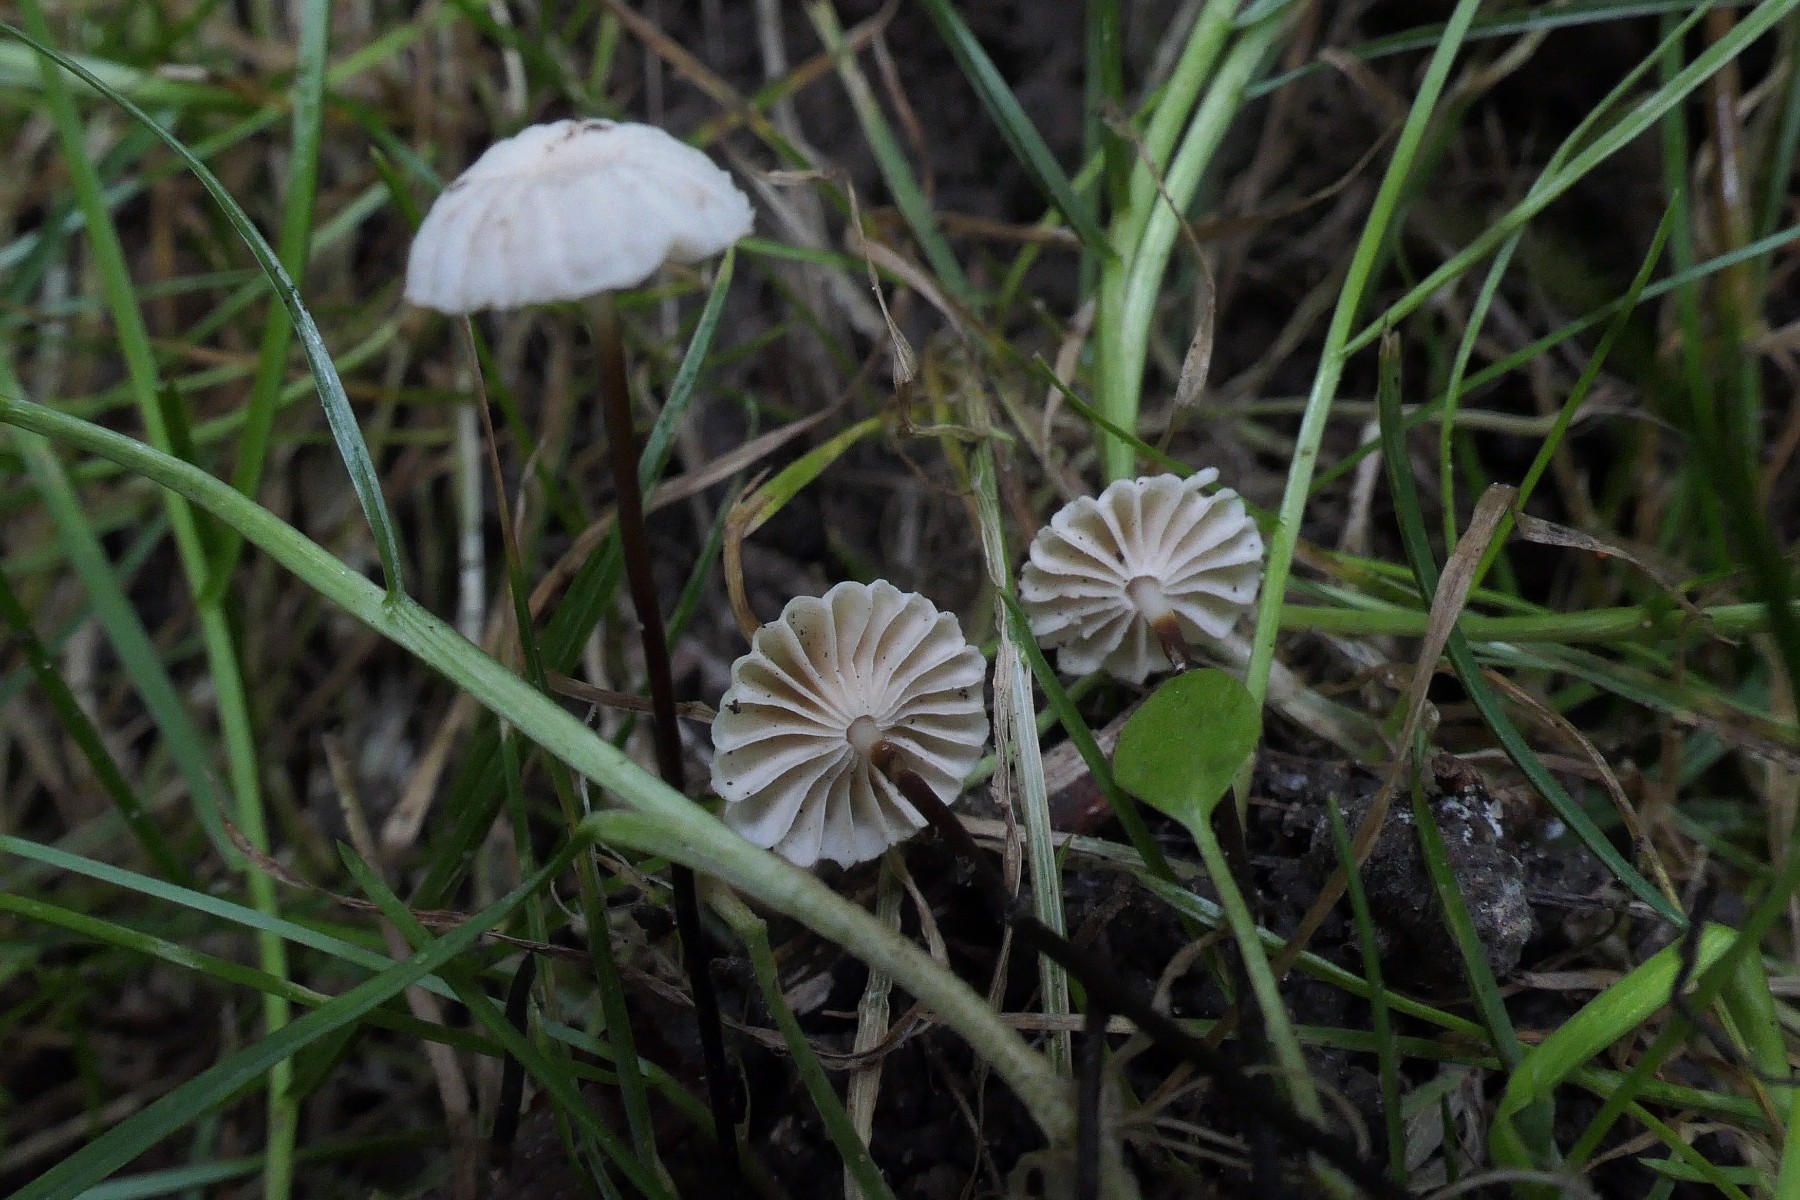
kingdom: Fungi
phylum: Basidiomycota
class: Agaricomycetes
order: Agaricales
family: Marasmiaceae
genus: Marasmius
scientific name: Marasmius rotula
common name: hjul-bruskhat
